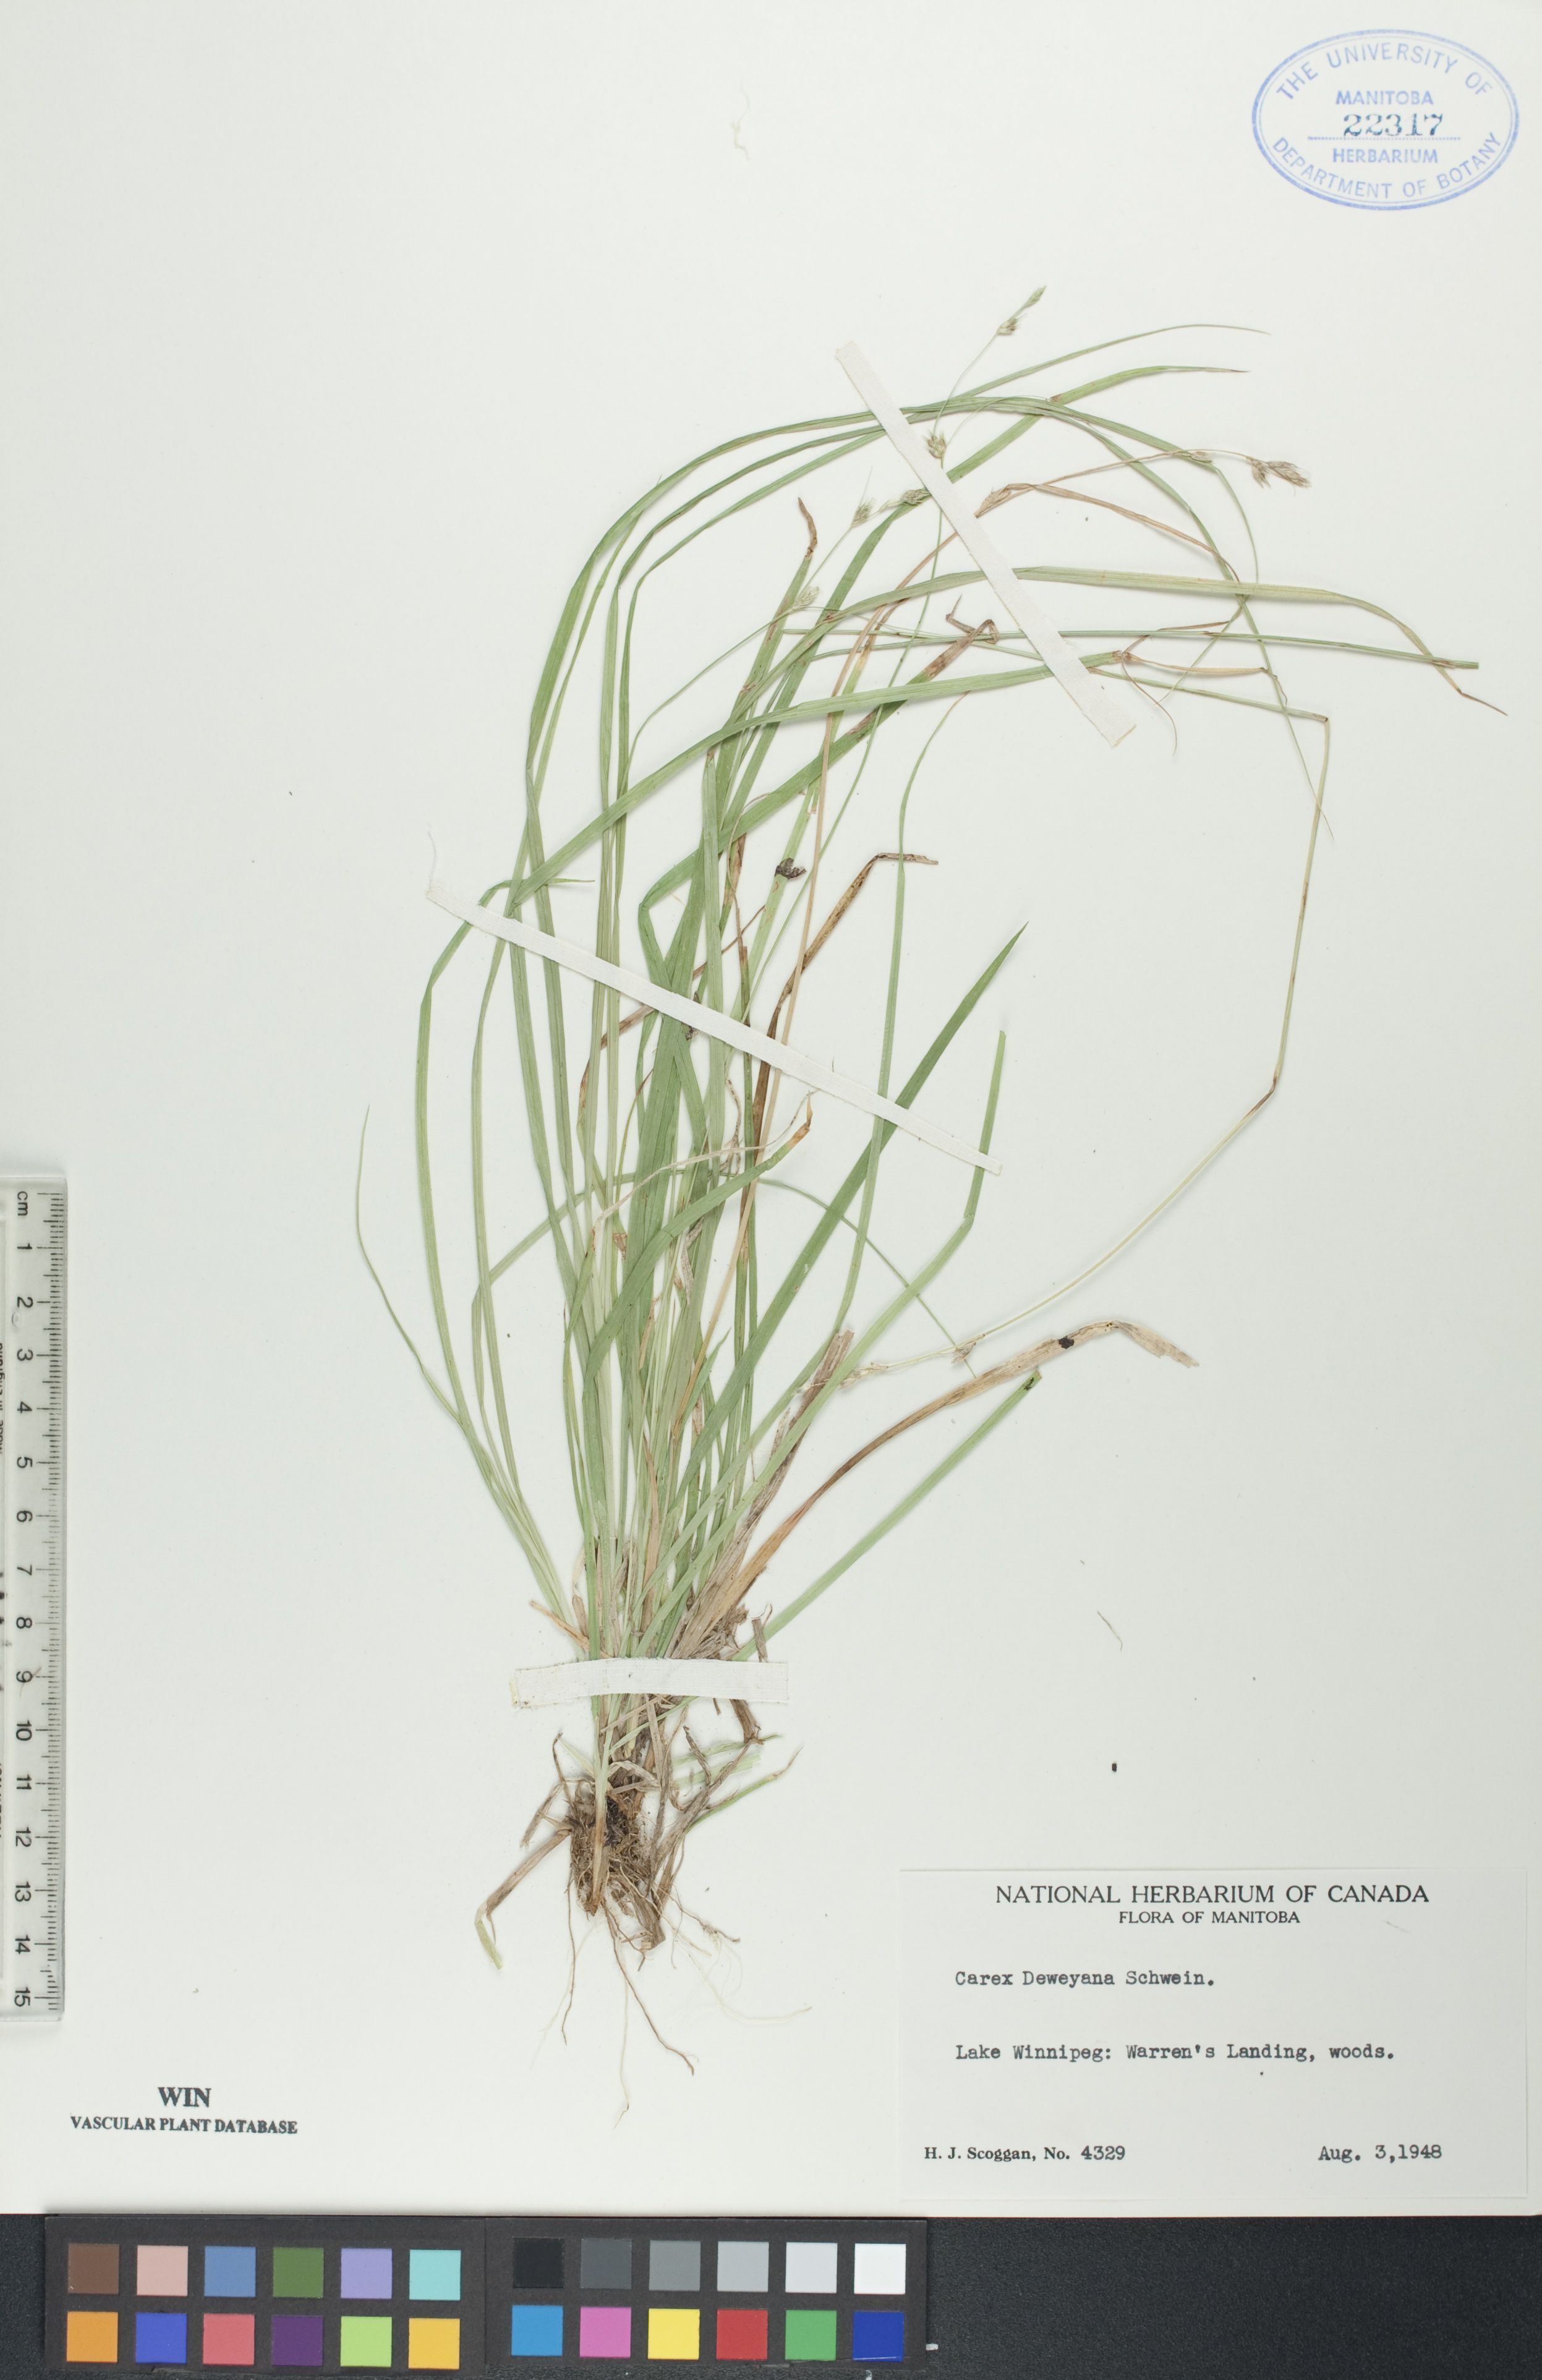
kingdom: Plantae
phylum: Tracheophyta
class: Liliopsida
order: Poales
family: Cyperaceae
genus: Carex
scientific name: Carex deweyana
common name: Dewey's sedge
